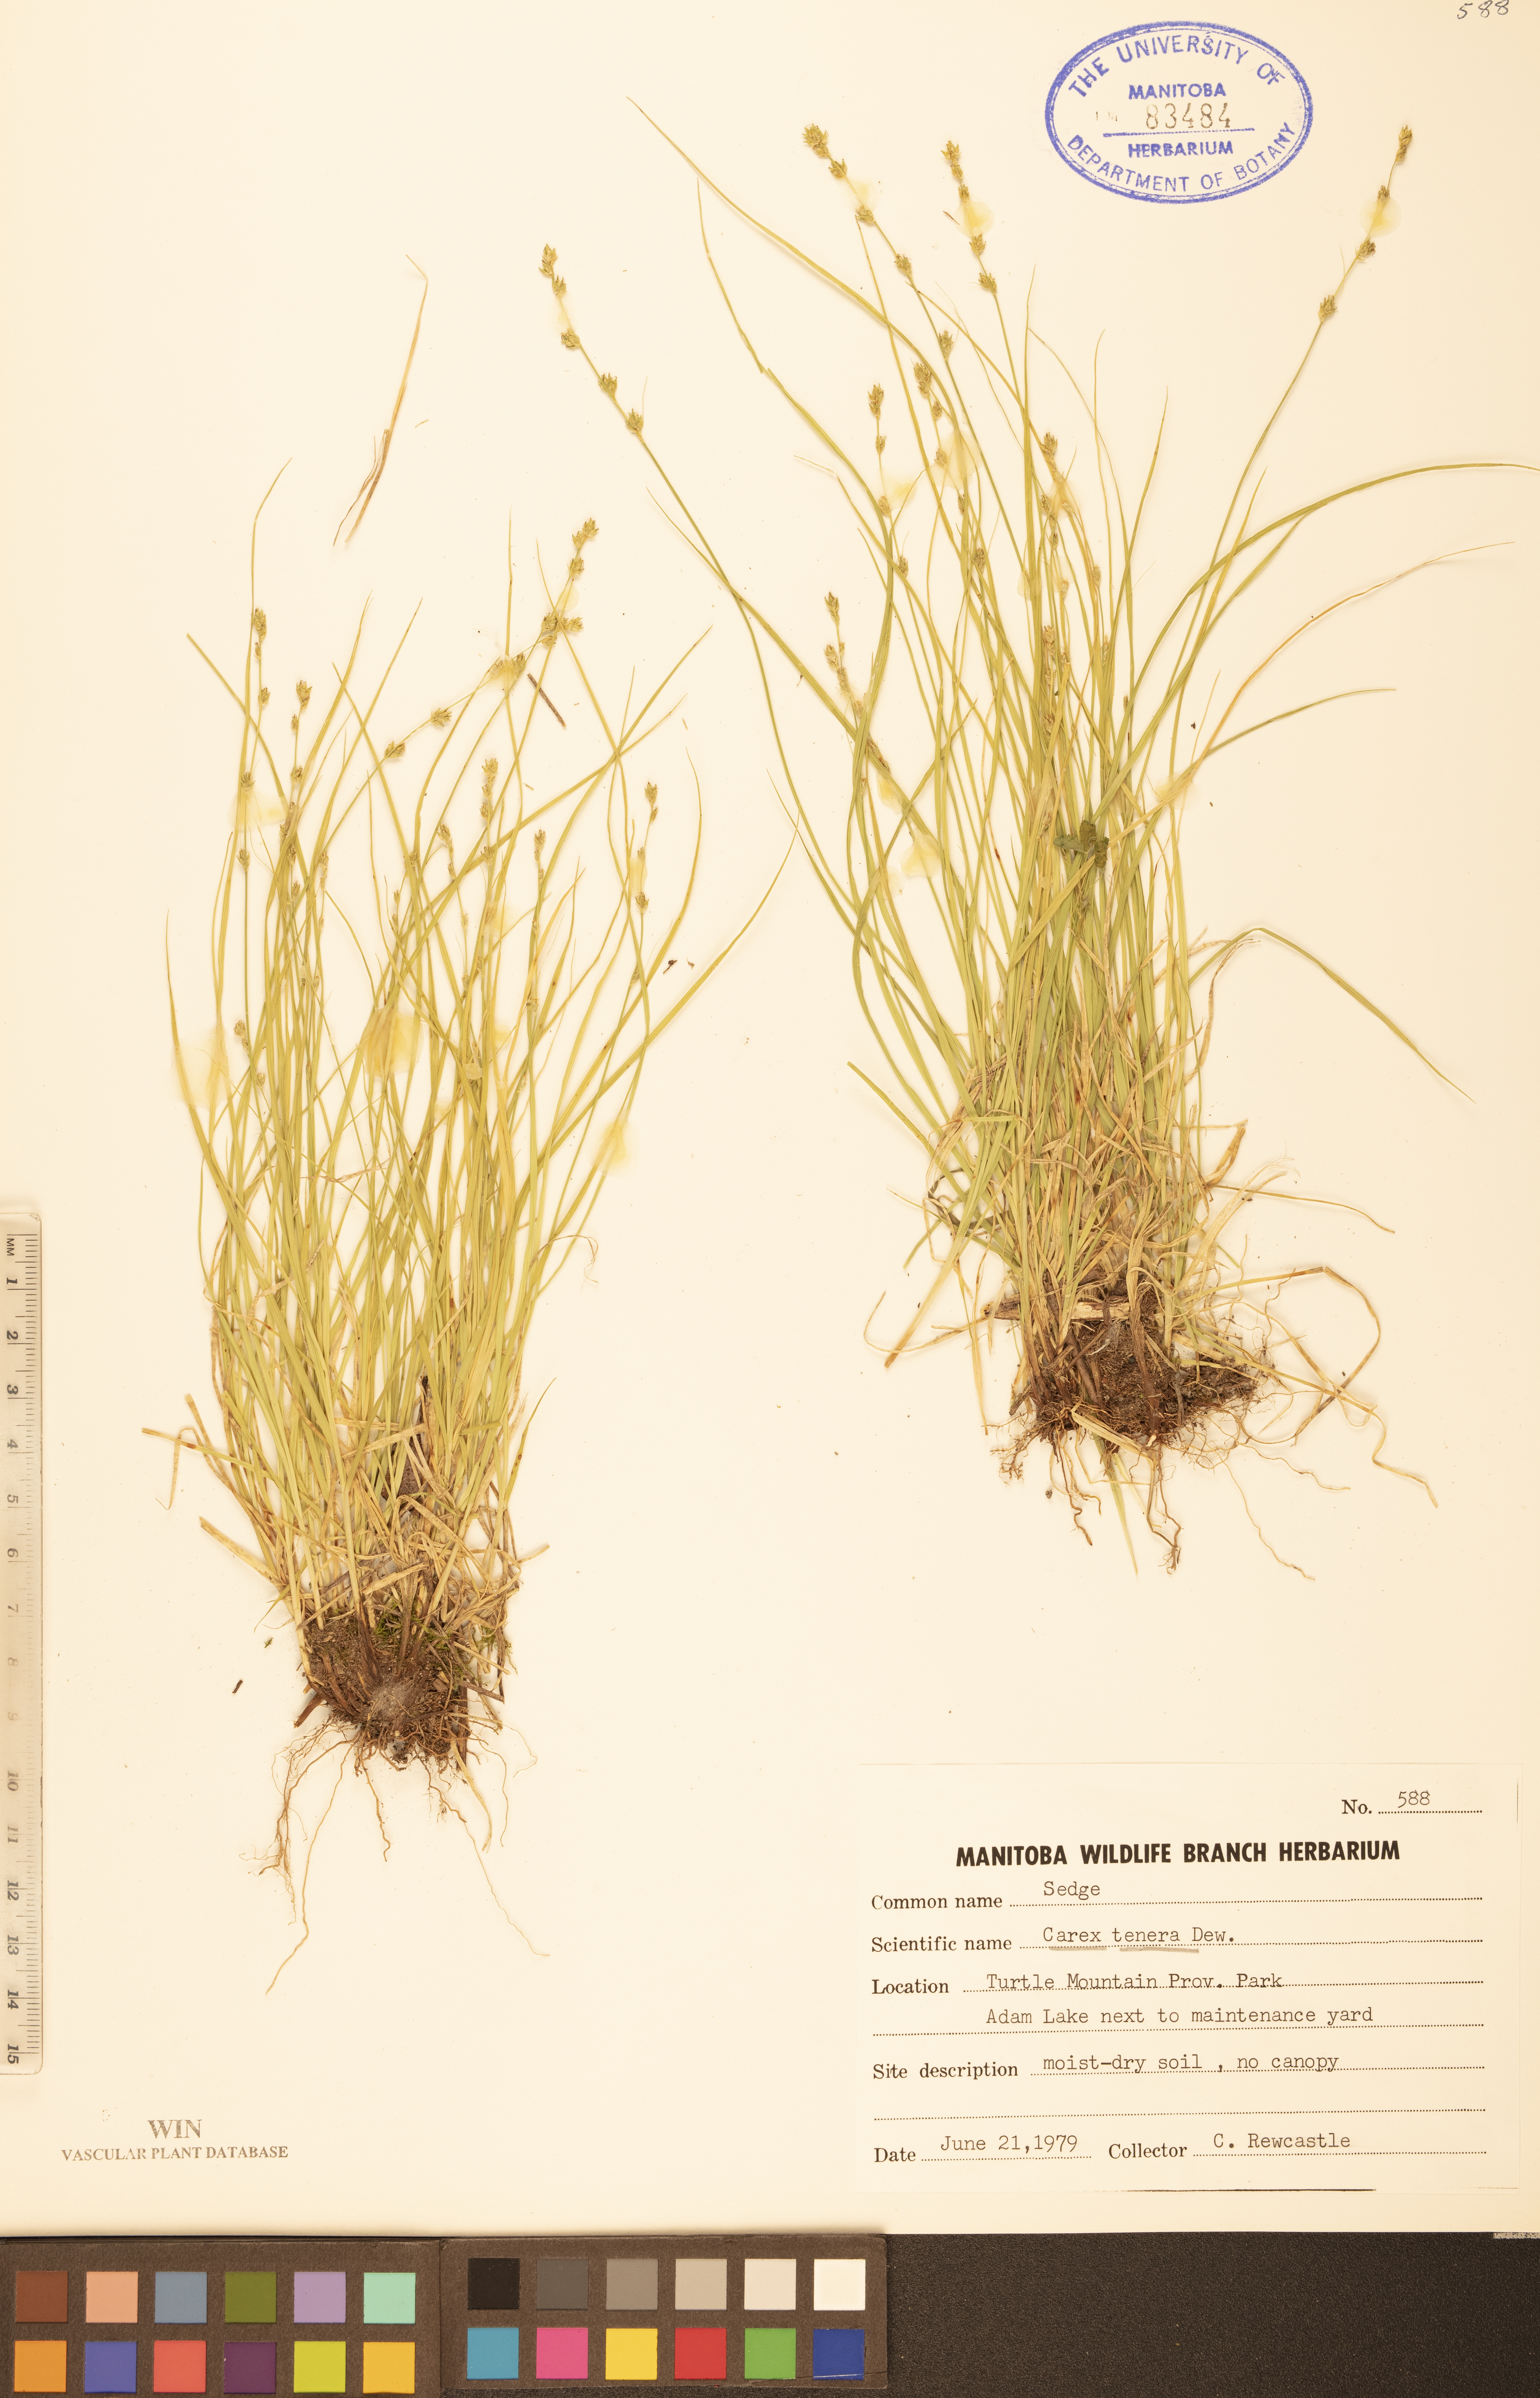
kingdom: Plantae
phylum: Tracheophyta
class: Liliopsida
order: Poales
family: Cyperaceae
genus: Carex
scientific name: Carex tenera
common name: Broad-fruited sedge
